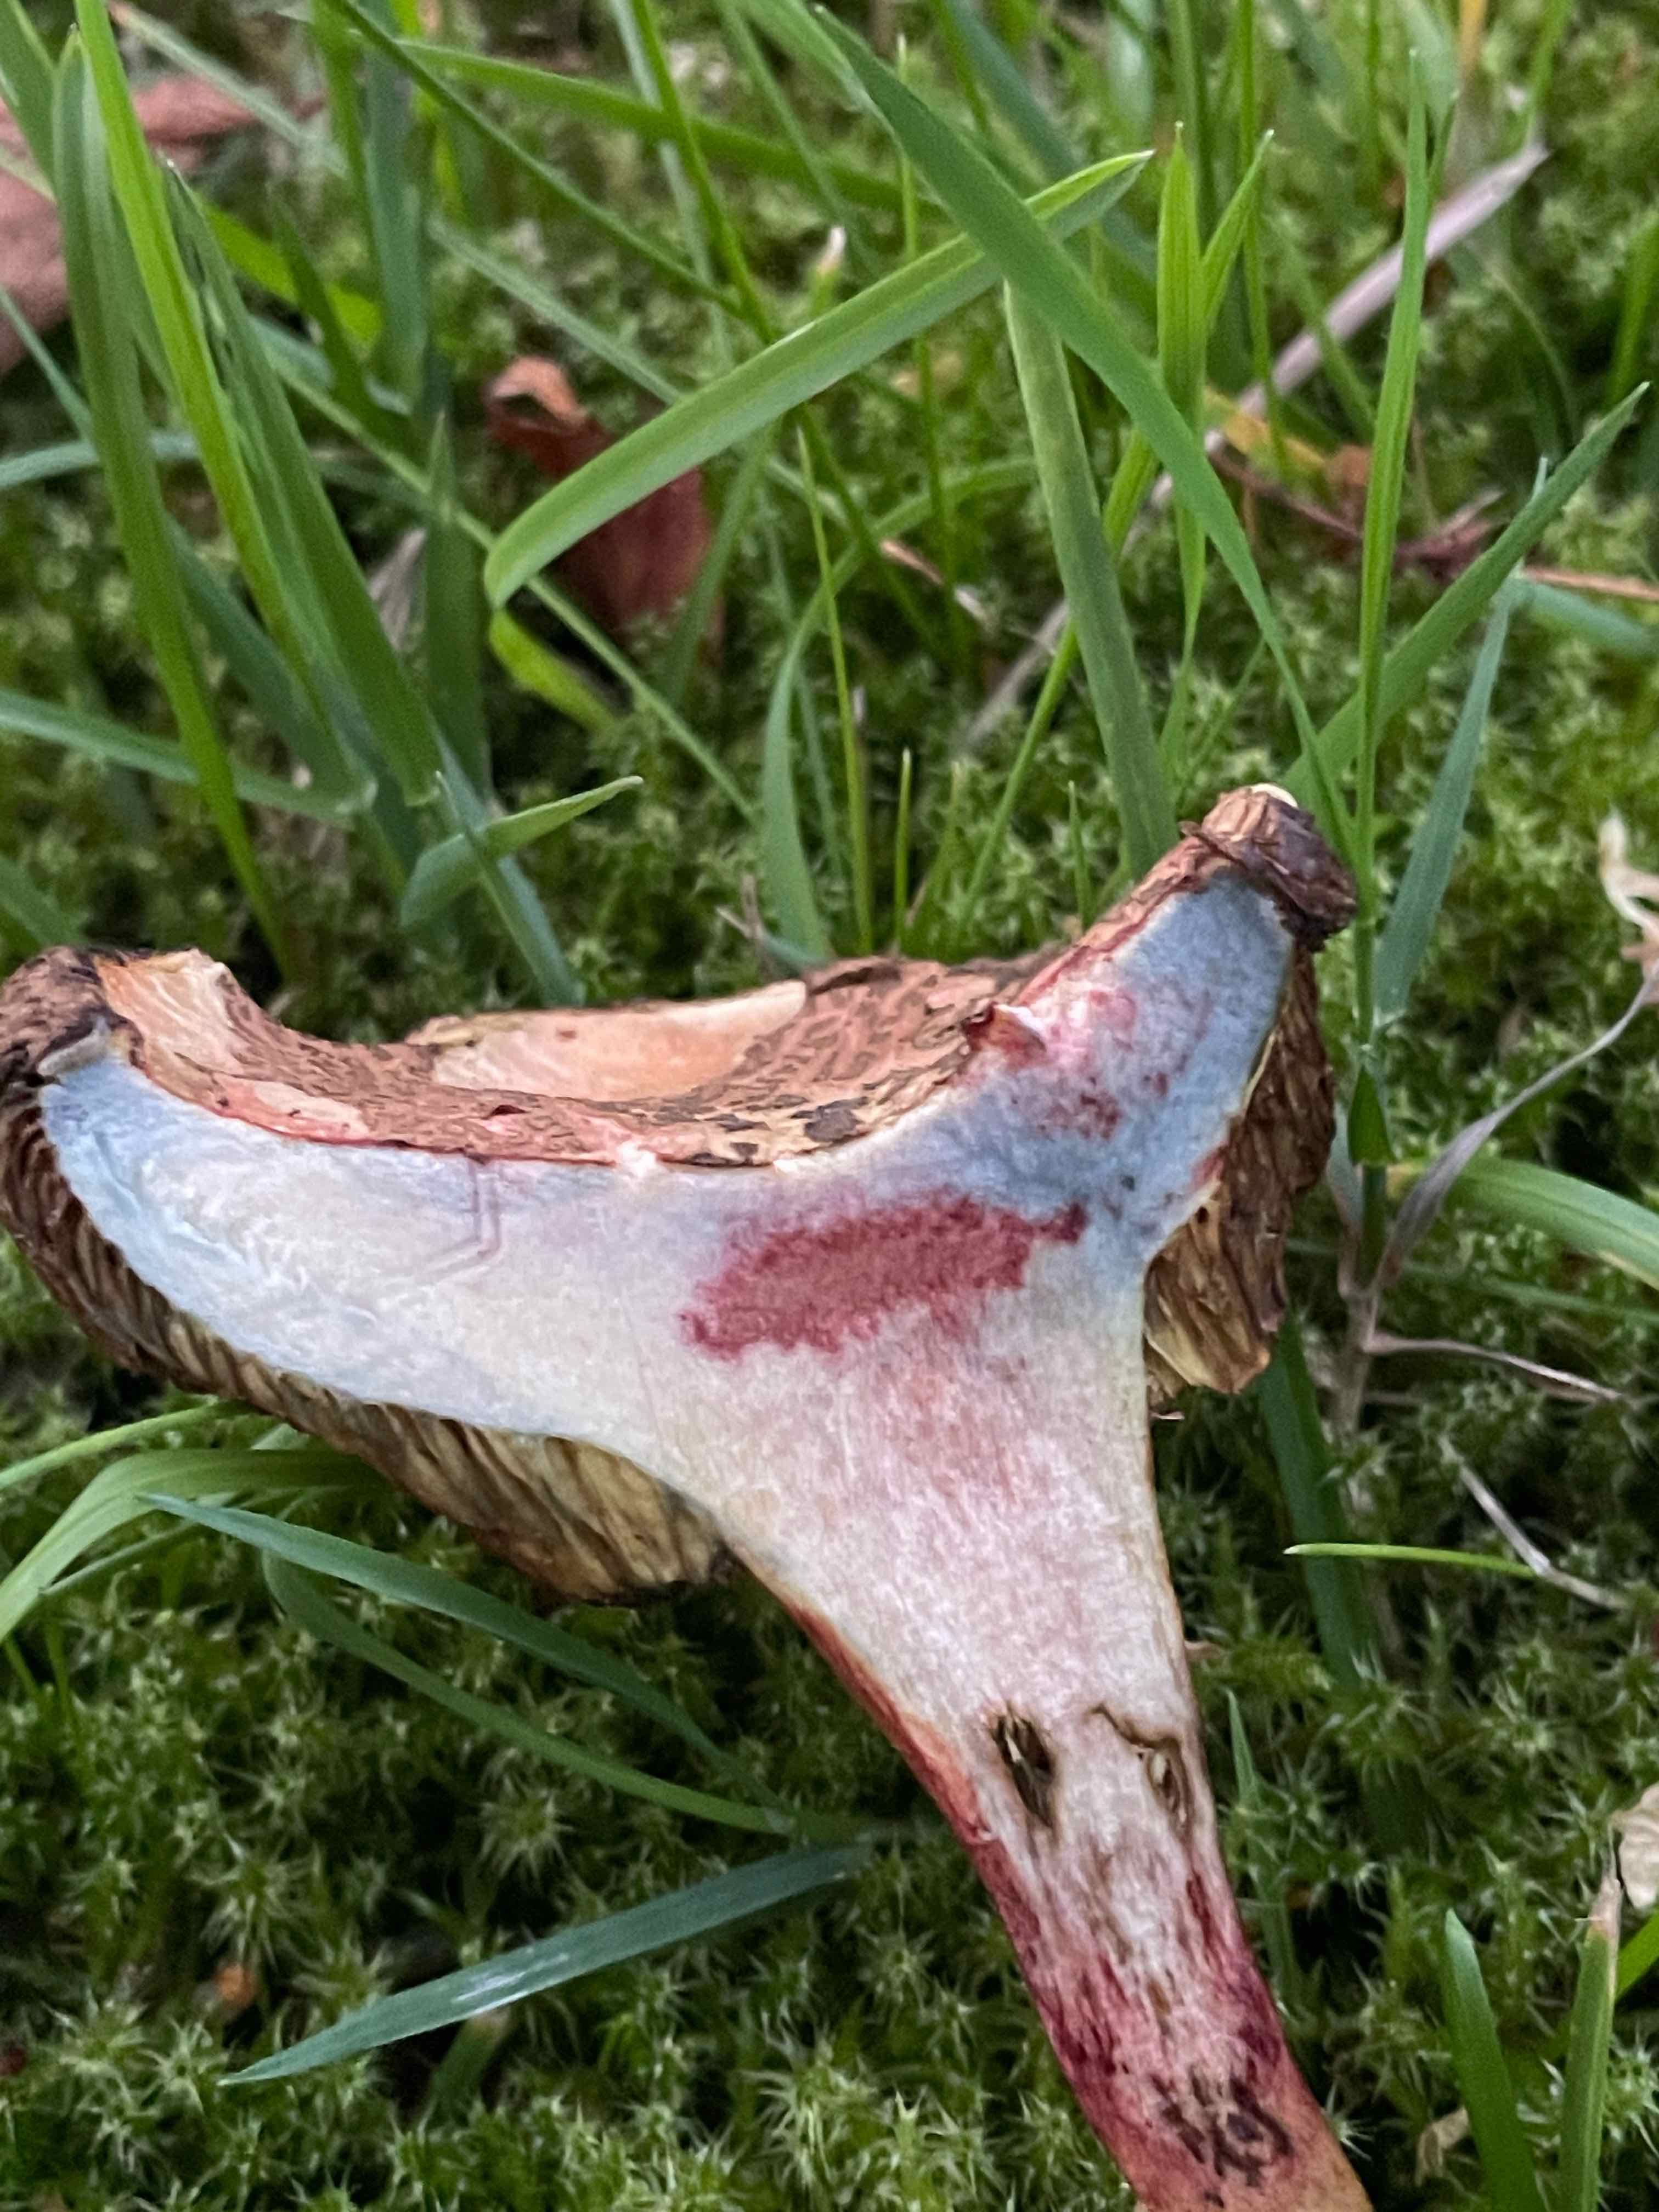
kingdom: Fungi
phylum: Basidiomycota
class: Agaricomycetes
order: Boletales
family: Boletaceae
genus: Xerocomellus
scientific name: Xerocomellus cisalpinus
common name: finsprukken rørhat
